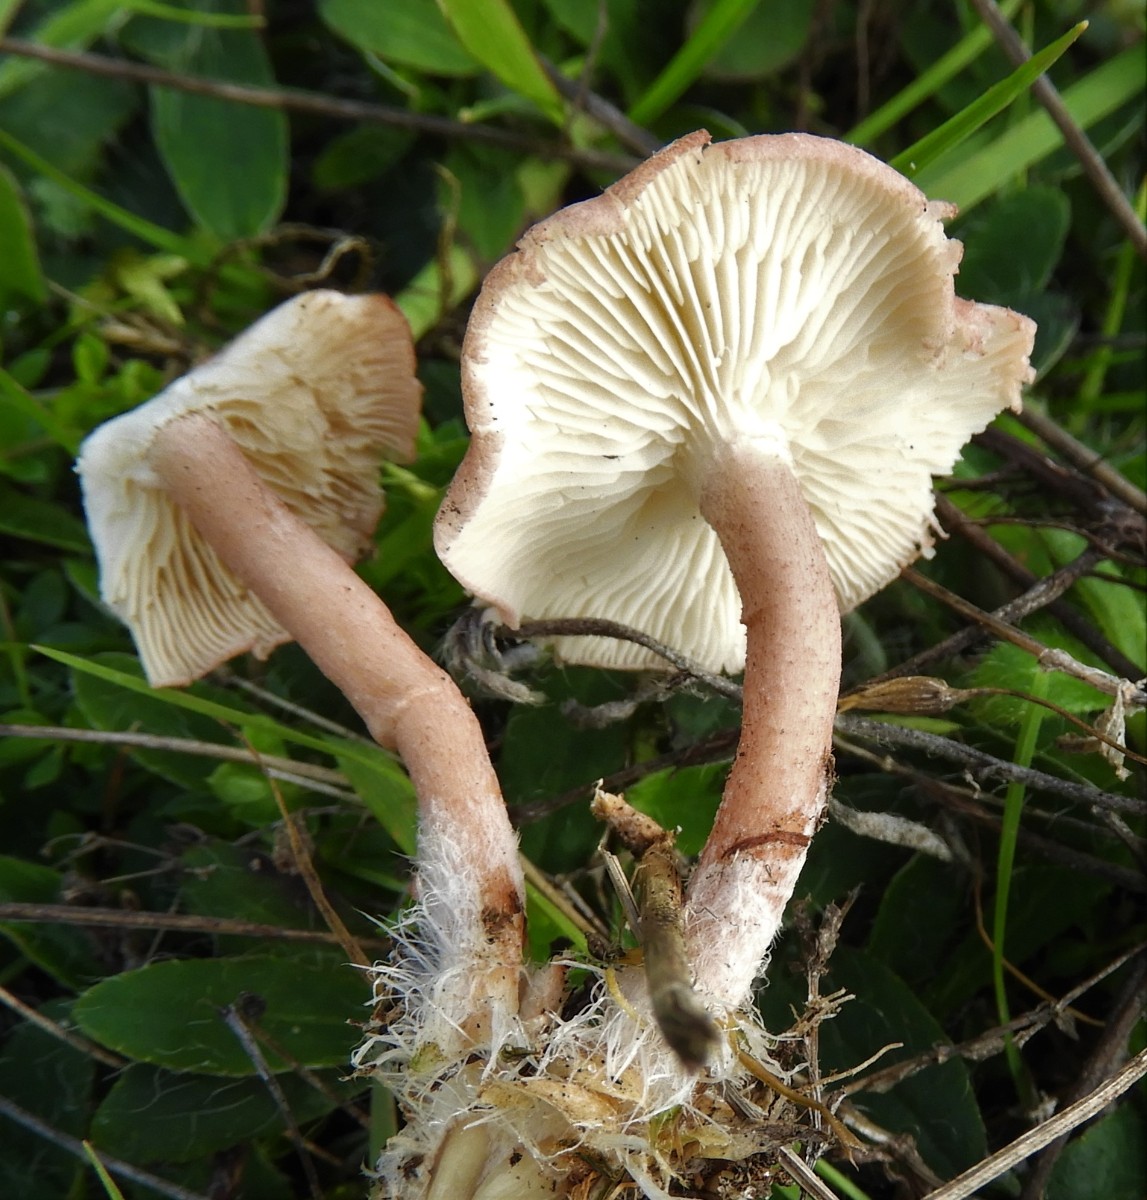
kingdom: Fungi
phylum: Basidiomycota
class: Agaricomycetes
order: Agaricales
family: Lyophyllaceae
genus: Calocybe
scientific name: Calocybe carnea
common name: rosa fagerhat
